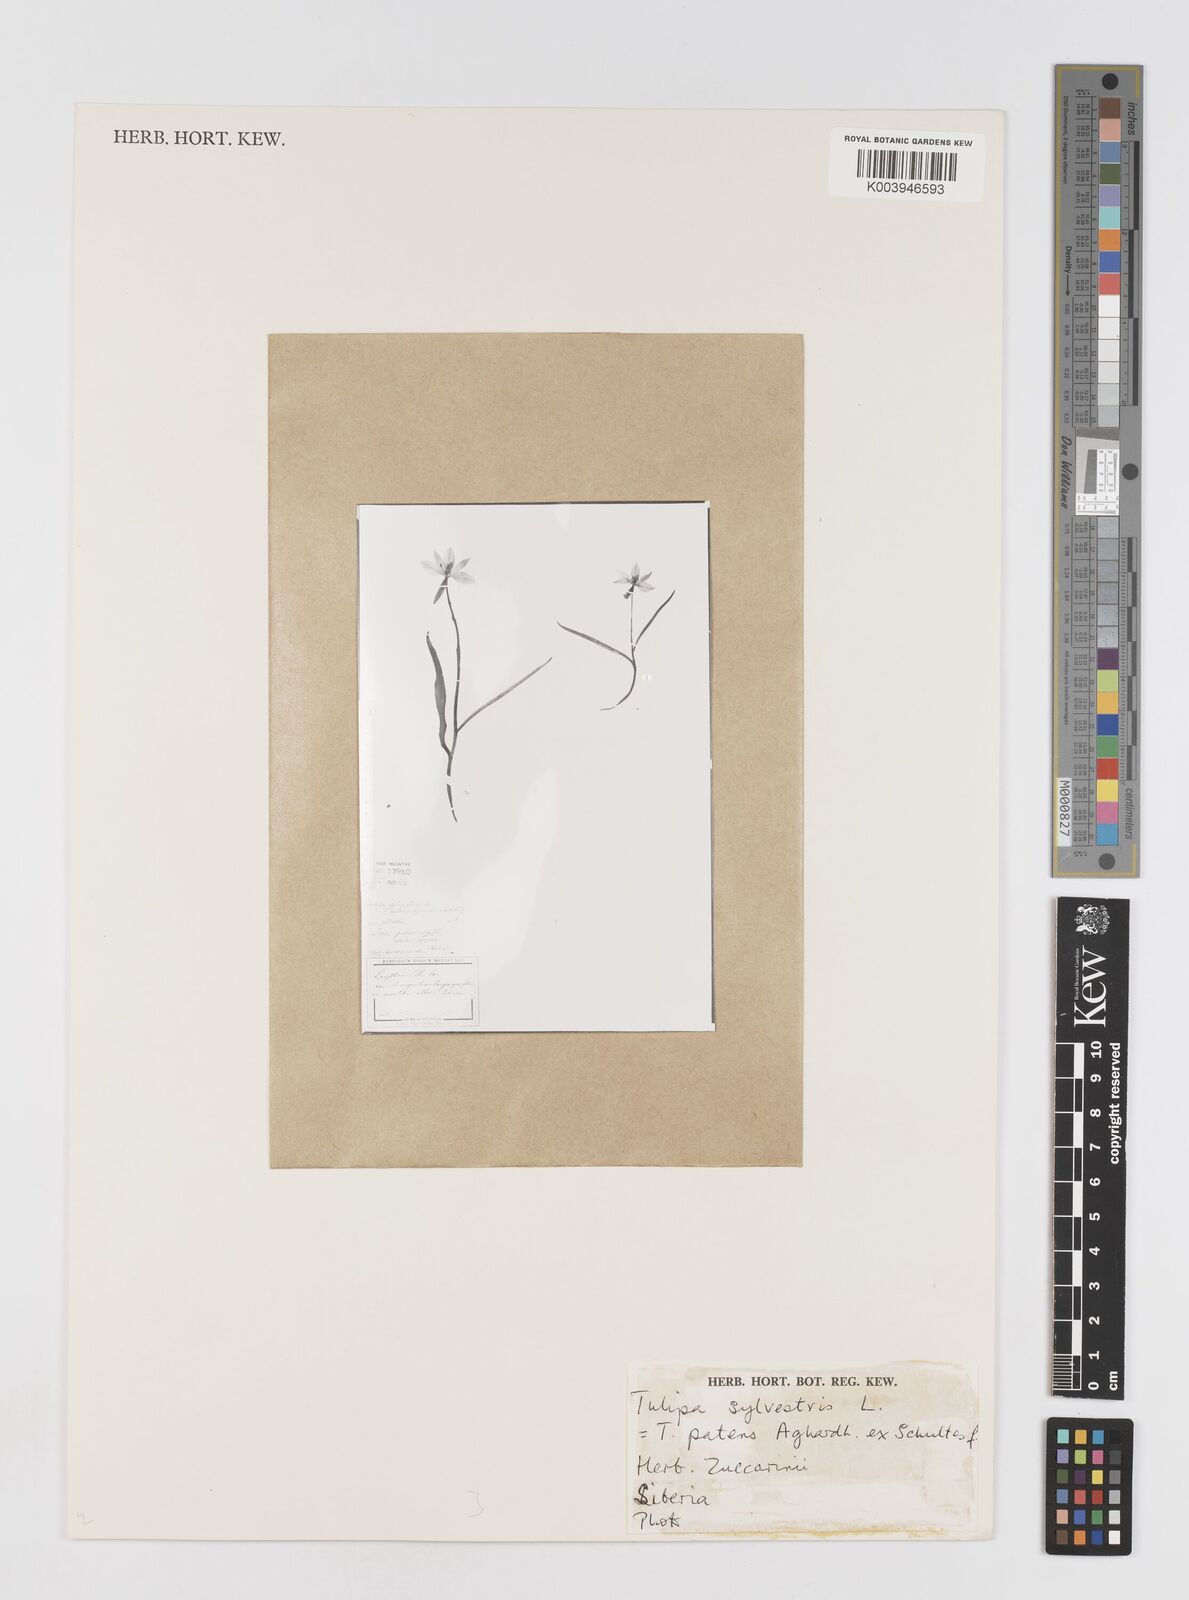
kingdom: Plantae
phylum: Tracheophyta
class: Liliopsida
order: Liliales
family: Liliaceae
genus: Tulipa
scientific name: Tulipa sylvestris
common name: Wild tulip
